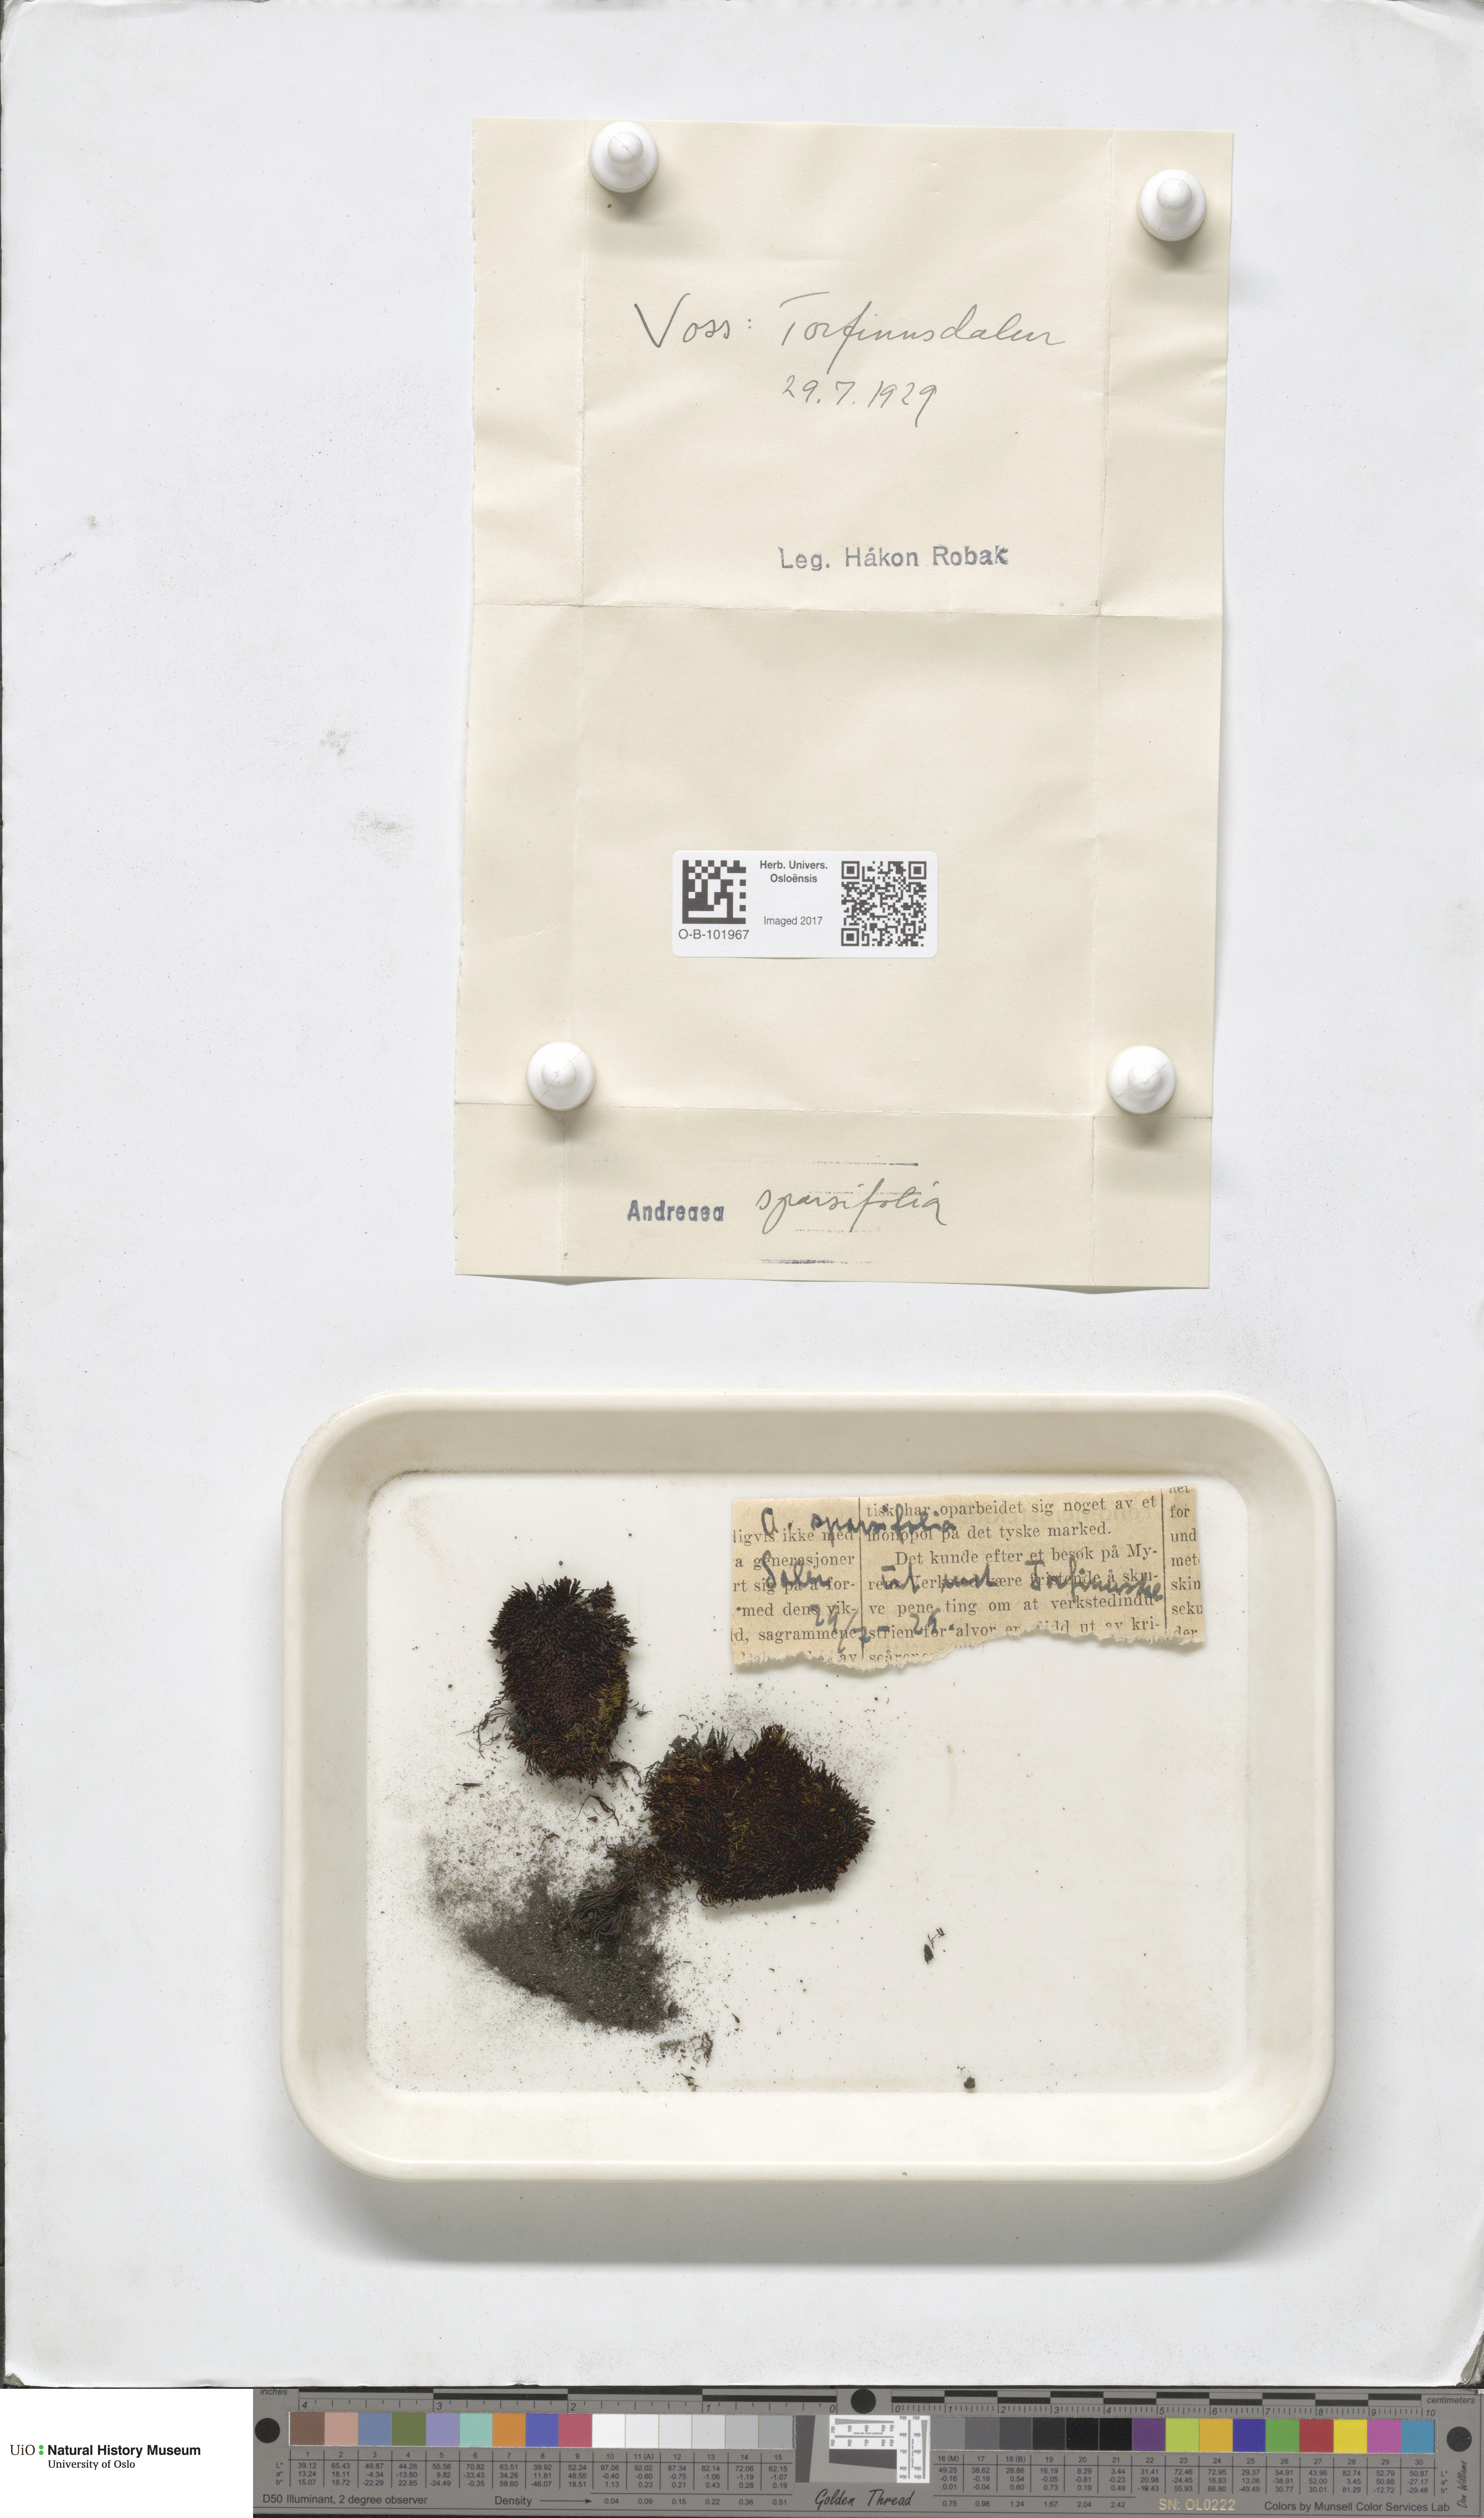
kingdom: Plantae
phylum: Bryophyta
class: Andreaeopsida
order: Andreaeales
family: Andreaeaceae
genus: Andreaea
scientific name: Andreaea rupestris
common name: Black rock moss
